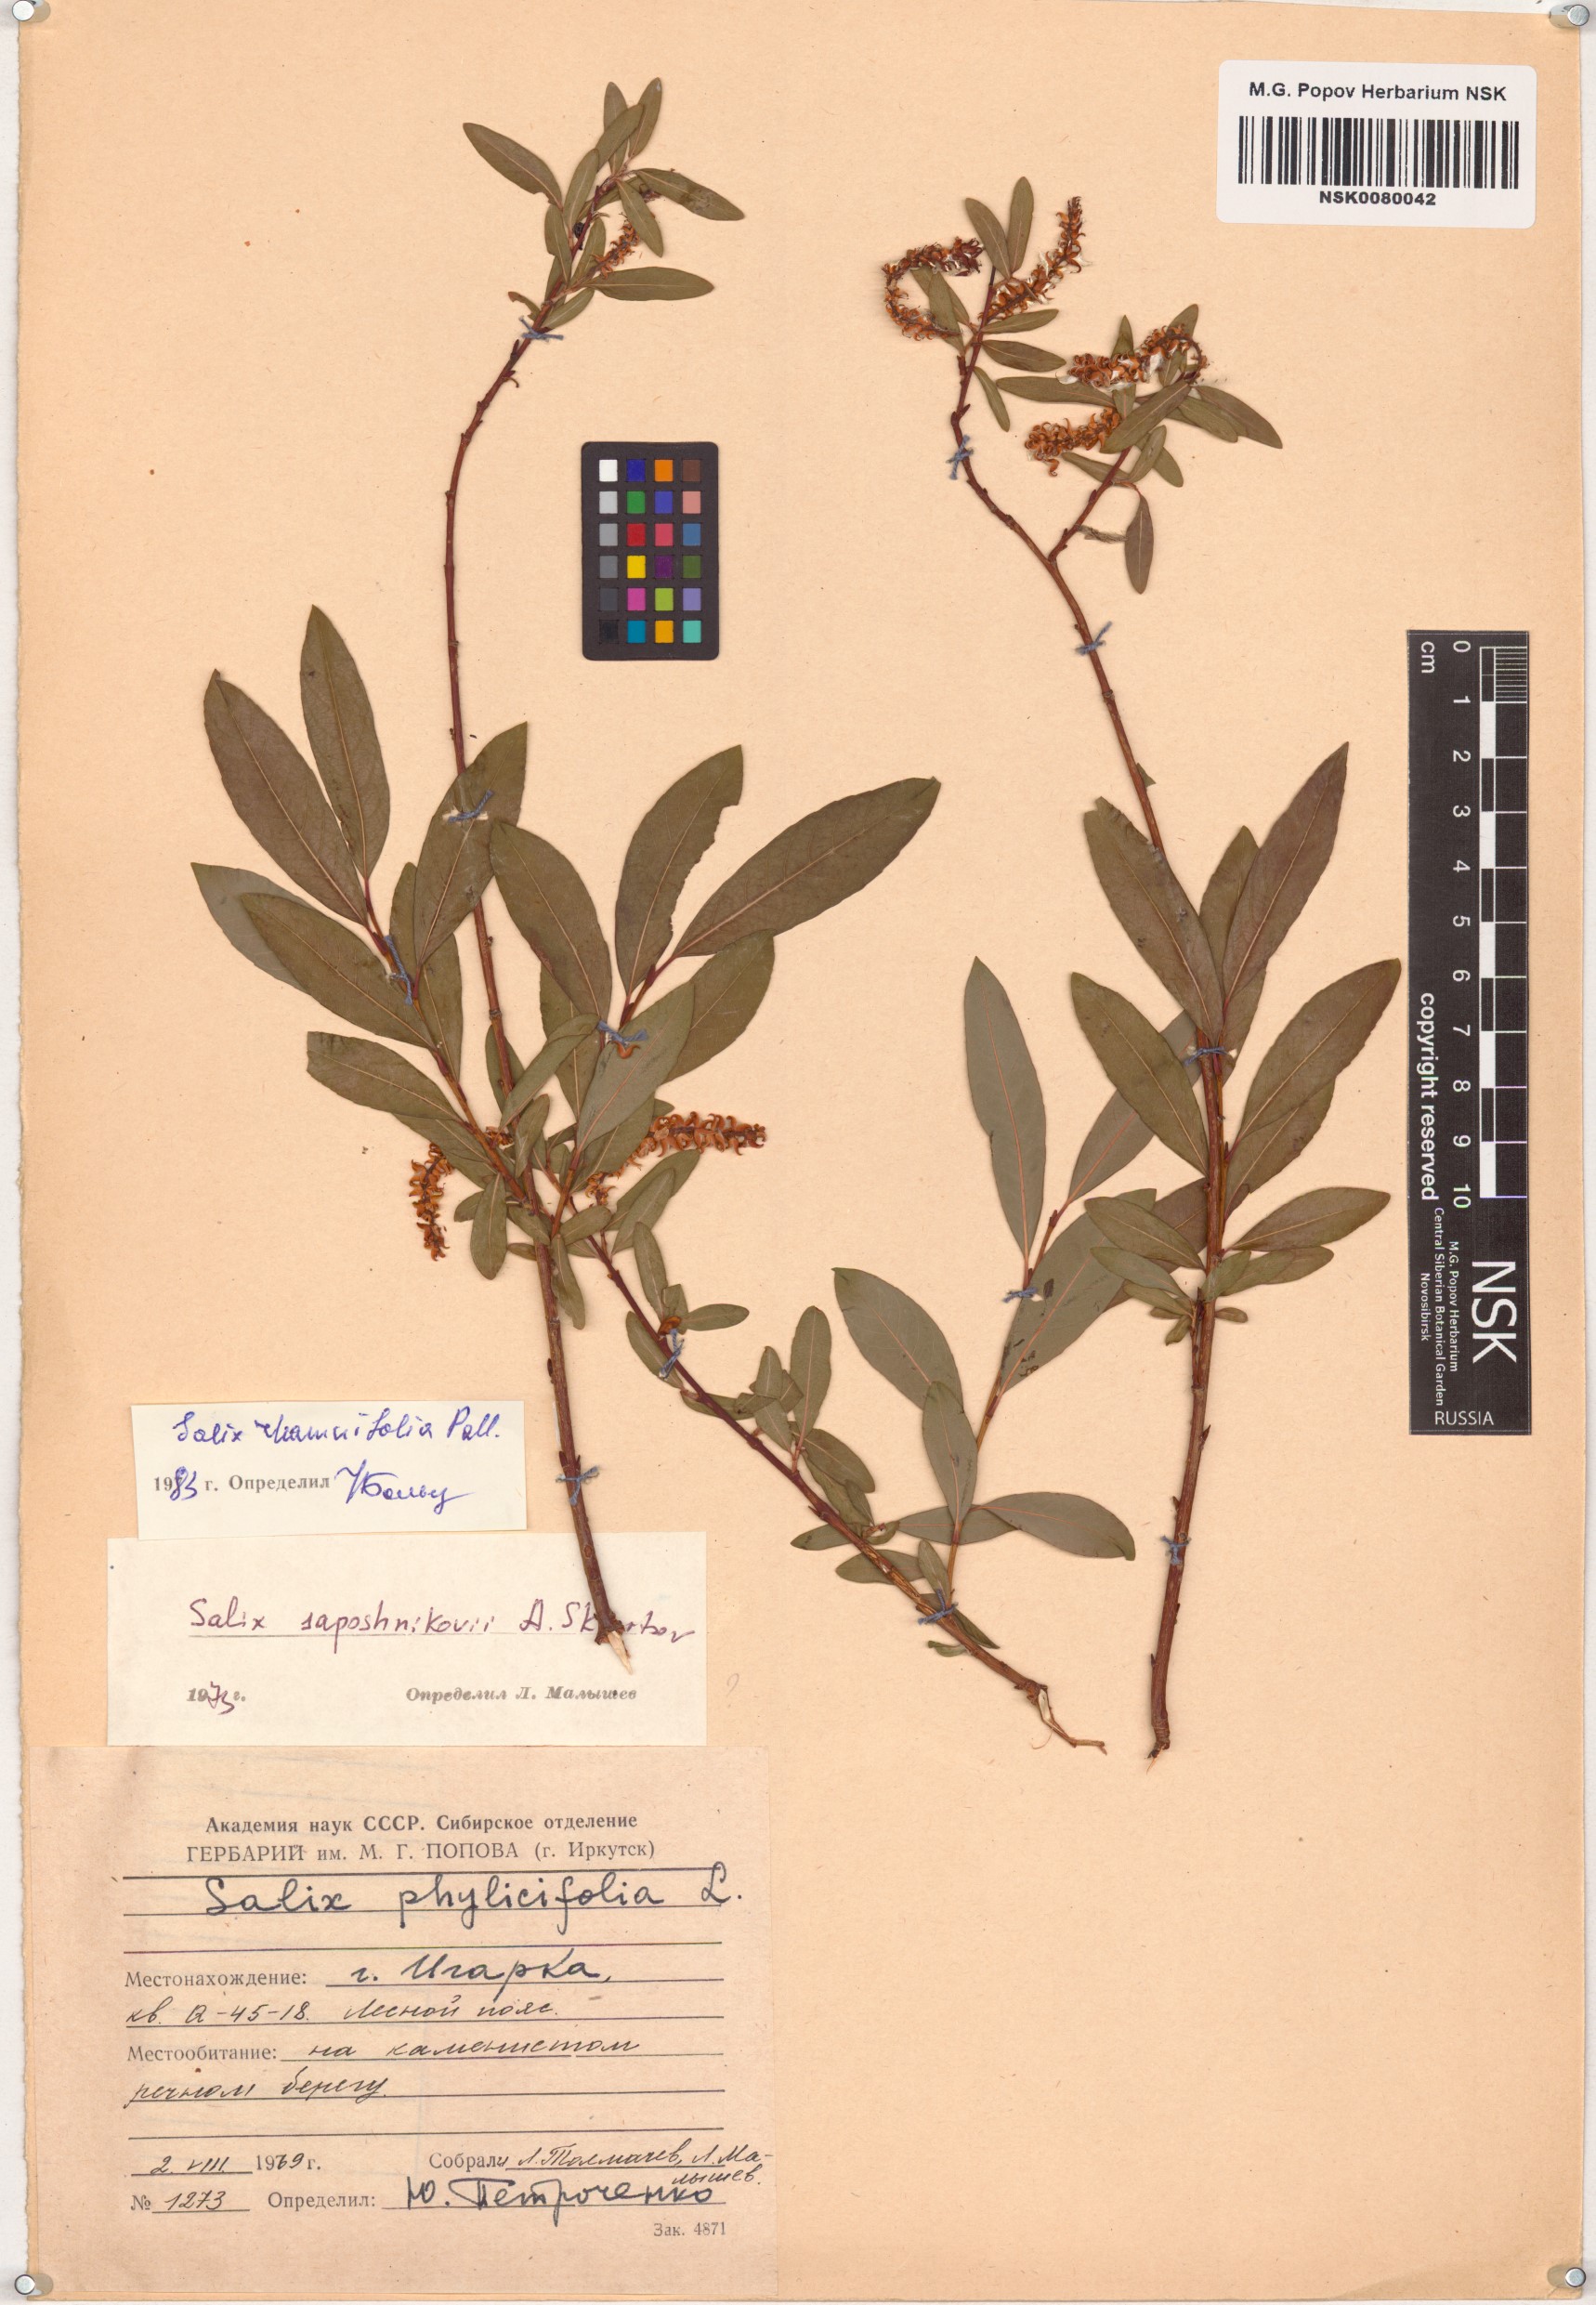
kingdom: Plantae
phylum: Tracheophyta
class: Magnoliopsida
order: Malpighiales
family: Salicaceae
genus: Salix
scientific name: Salix rhamnifolia
